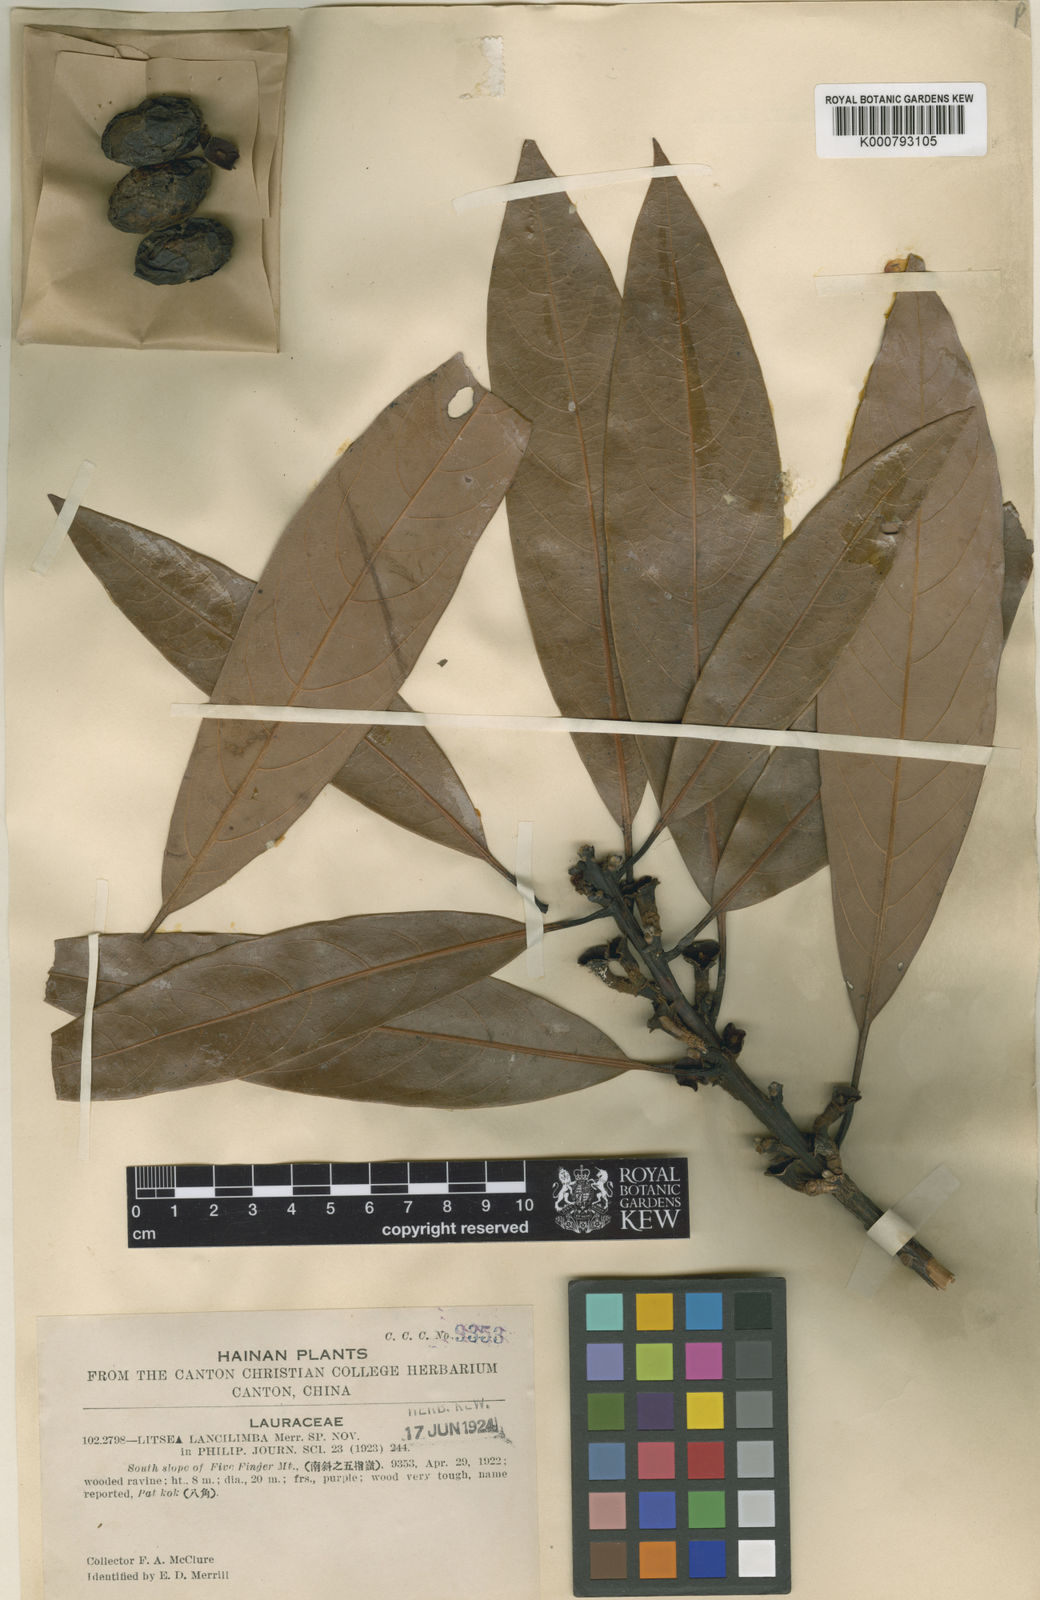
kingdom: Plantae
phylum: Tracheophyta
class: Magnoliopsida
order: Laurales
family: Lauraceae
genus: Litsea
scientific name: Litsea lancilimba
